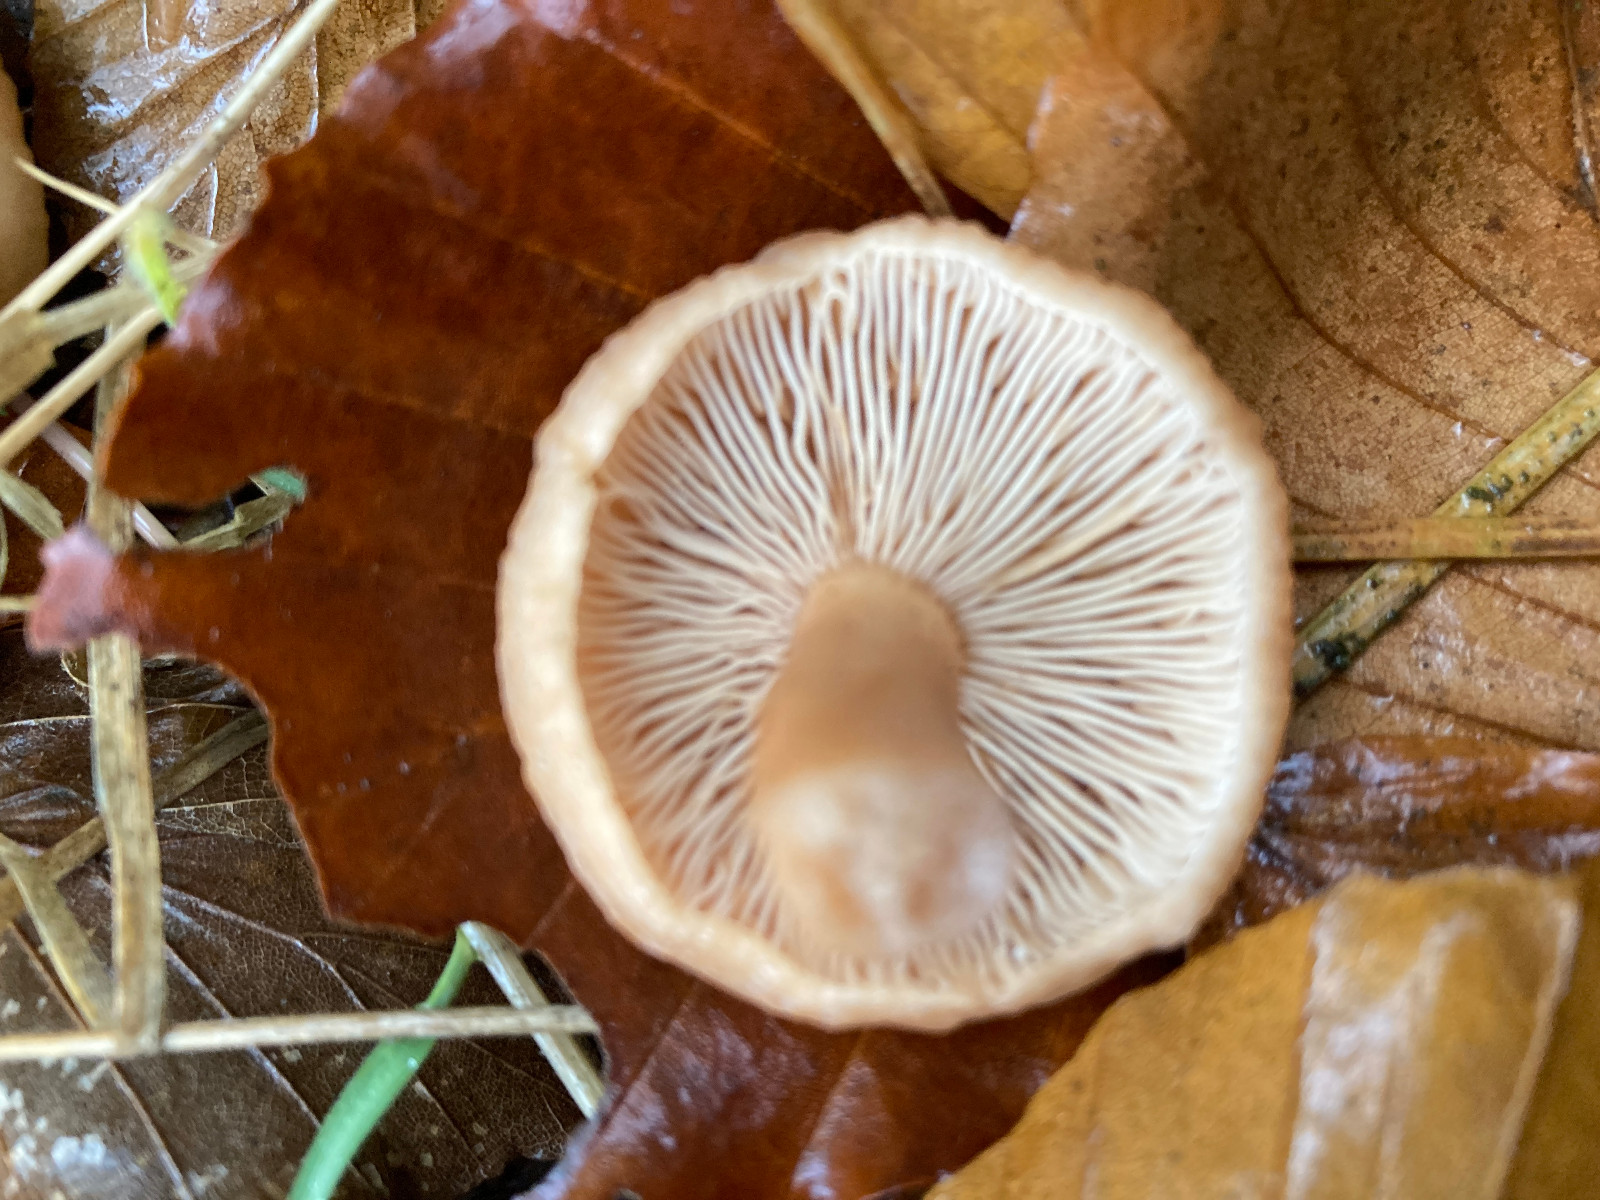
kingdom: Fungi
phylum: Basidiomycota
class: Agaricomycetes
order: Russulales
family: Russulaceae
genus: Lactarius
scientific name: Lactarius subdulcis
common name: sødlig mælkehat
